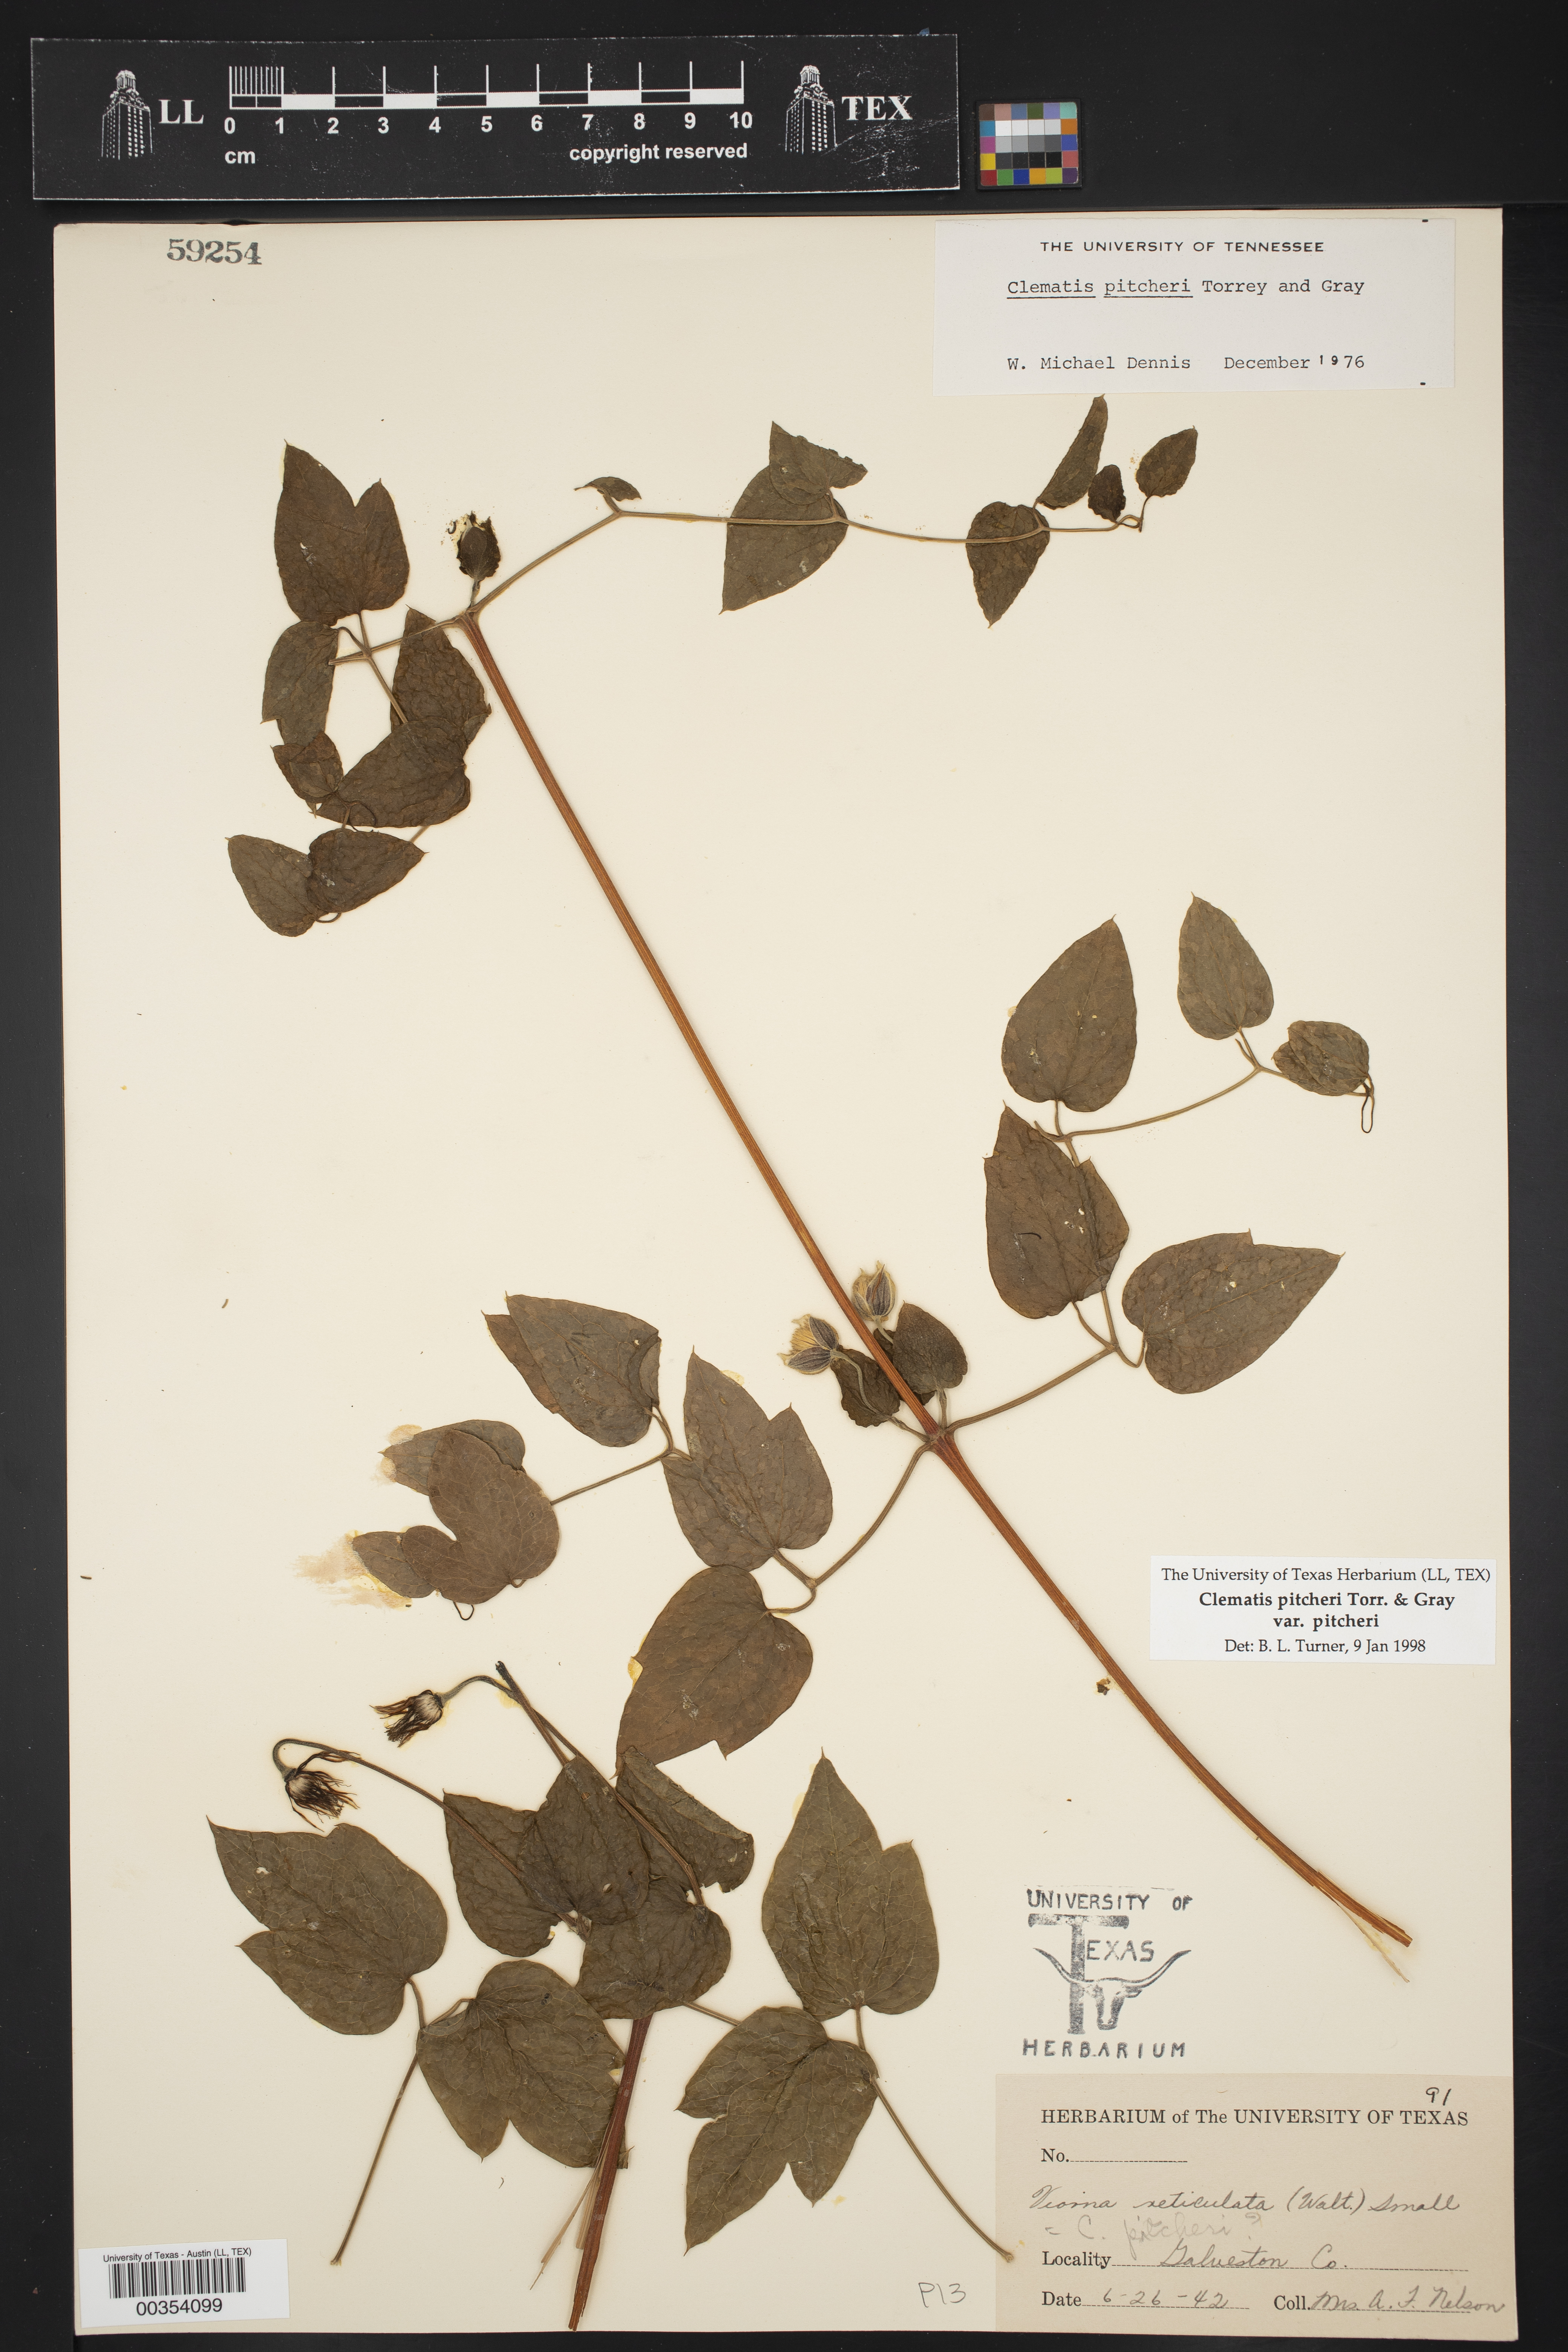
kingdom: Plantae
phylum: Tracheophyta
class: Magnoliopsida
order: Ranunculales
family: Ranunculaceae
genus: Clematis
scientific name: Clematis pitcheri
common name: Bellflower clematis
